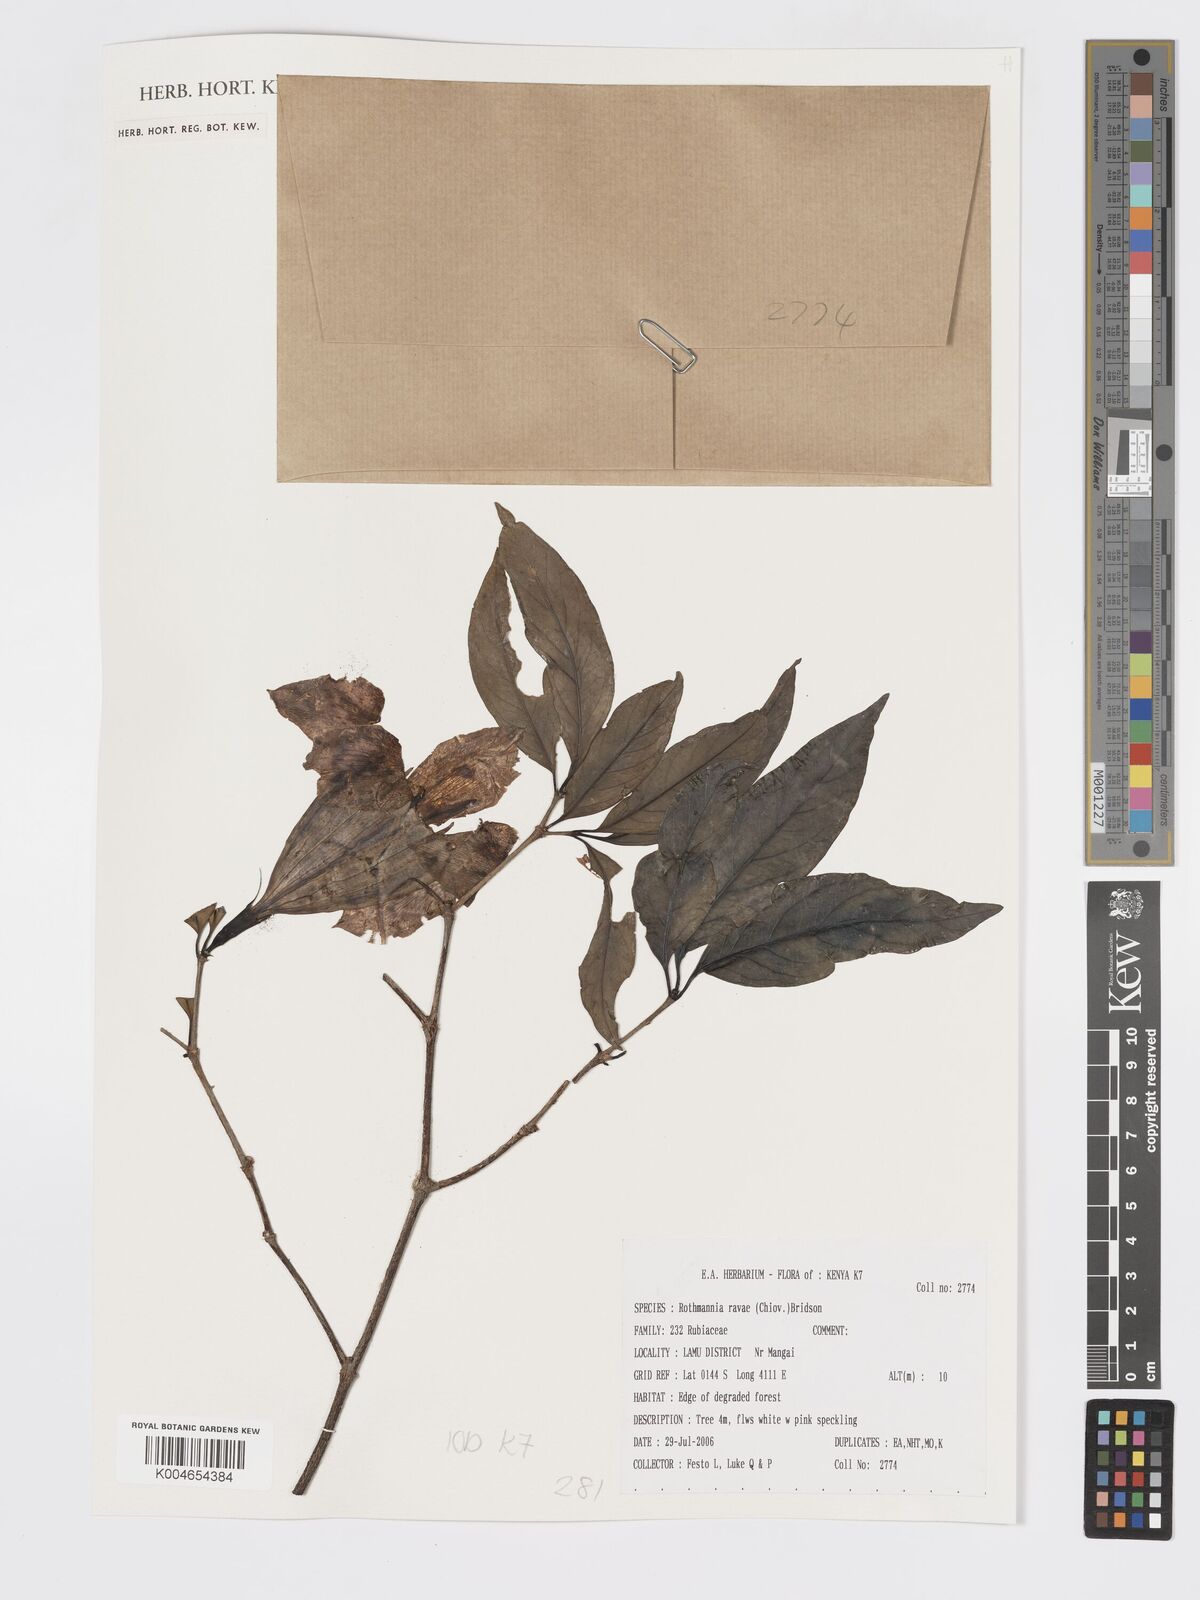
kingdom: Plantae
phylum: Tracheophyta
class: Magnoliopsida
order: Gentianales
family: Rubiaceae
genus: Rothmannia
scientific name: Rothmannia ravae
